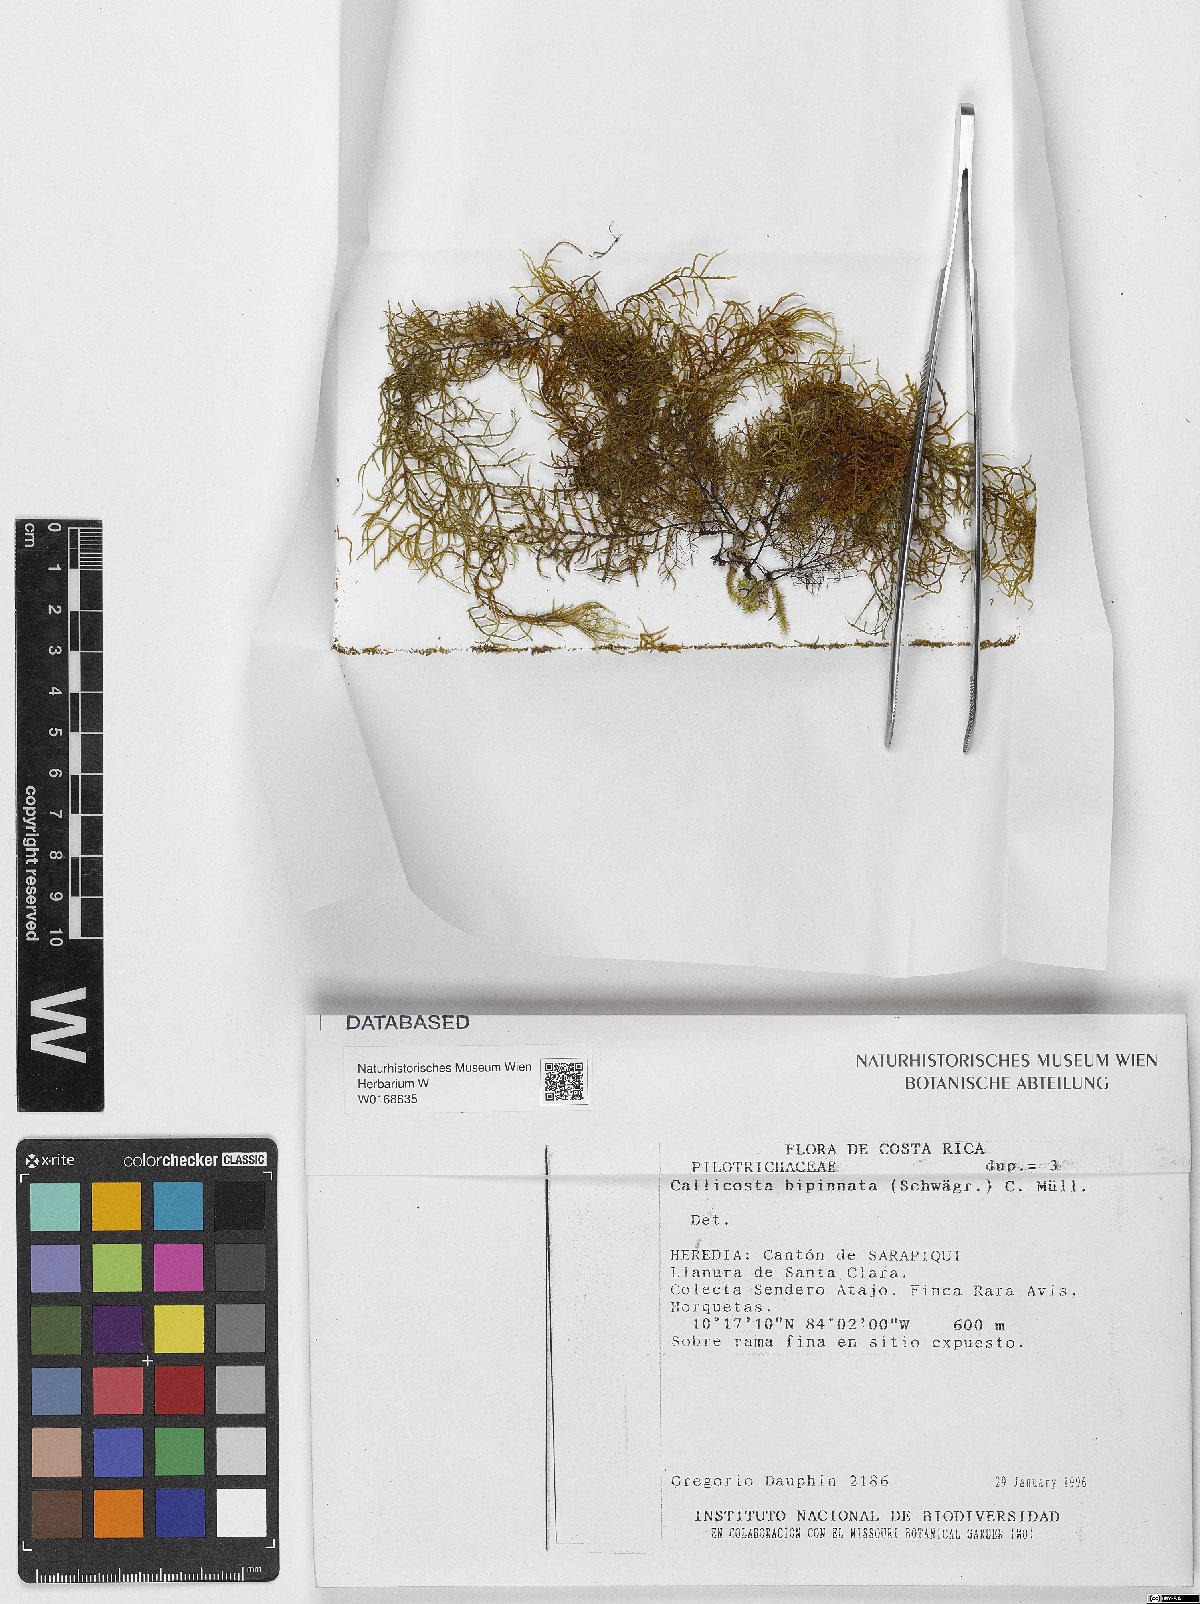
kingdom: Plantae
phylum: Bryophyta
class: Bryopsida
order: Hookeriales
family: Pilotrichaceae
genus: Pilotrichum
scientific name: Pilotrichum bipinnatum
